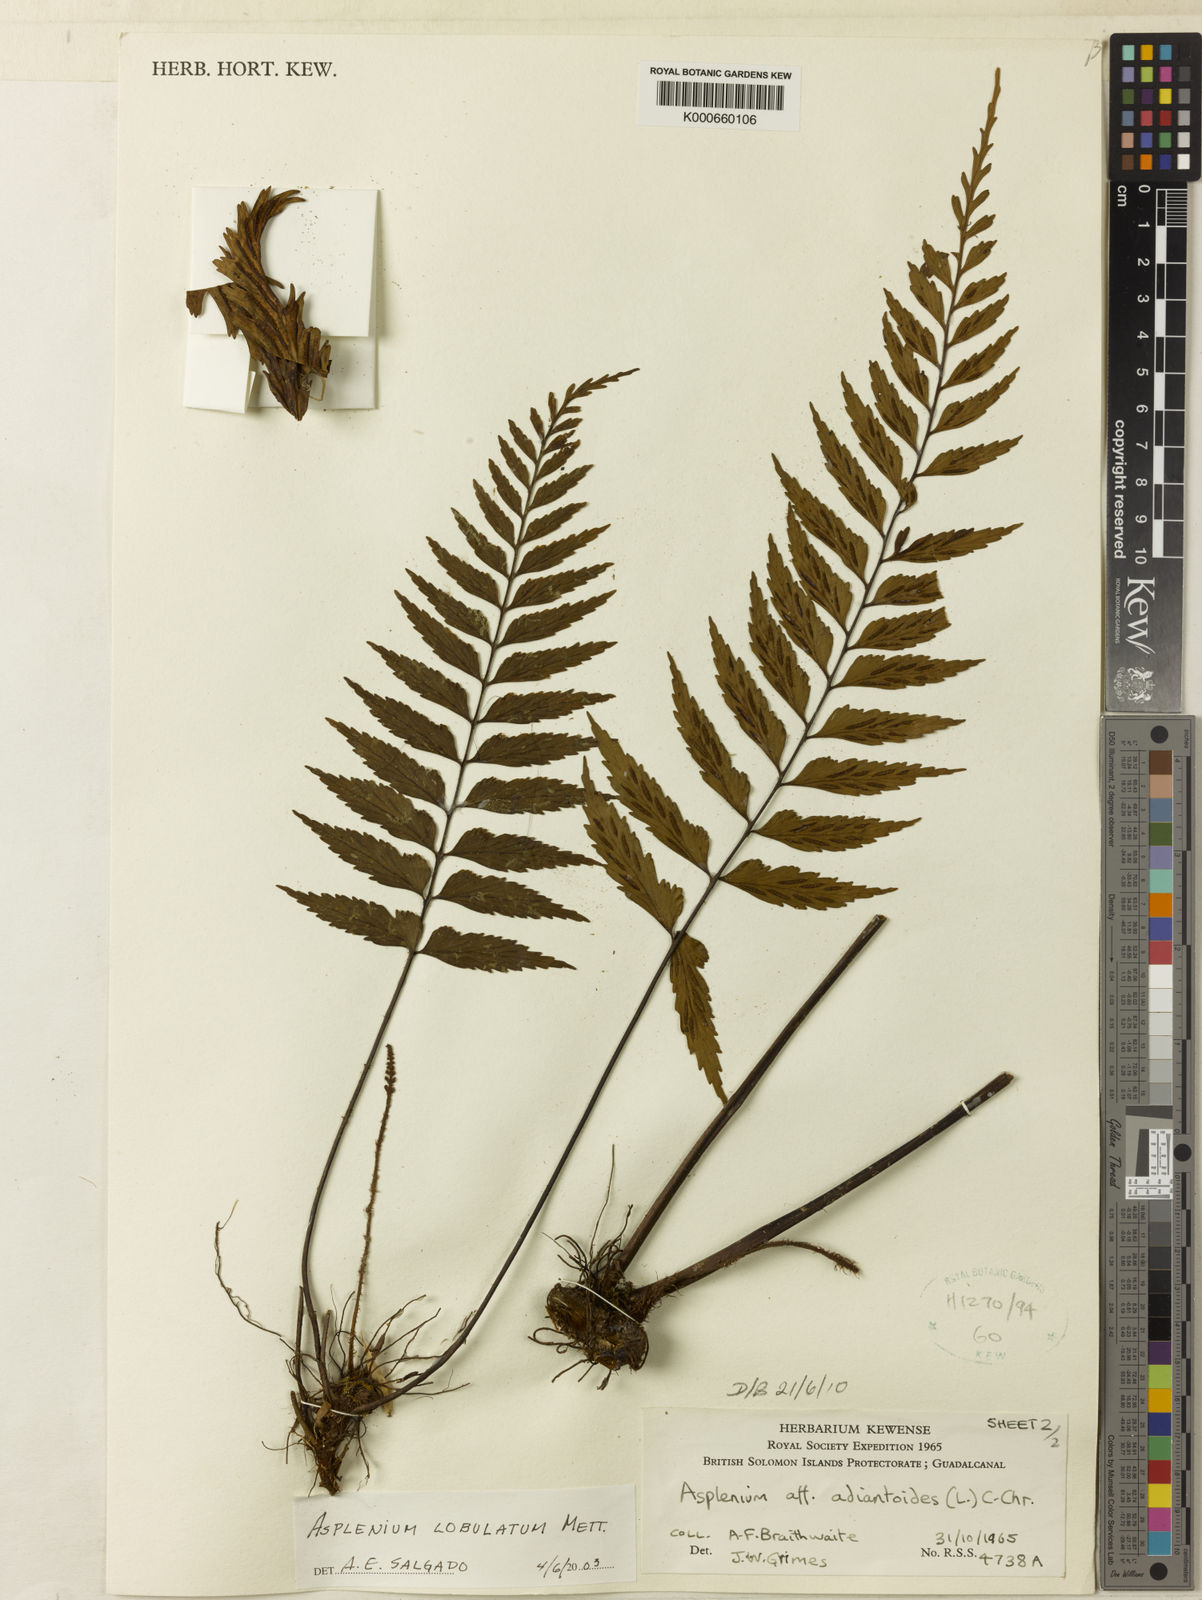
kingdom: Plantae
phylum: Tracheophyta
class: Polypodiopsida
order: Polypodiales
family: Aspleniaceae
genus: Asplenium
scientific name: Asplenium lobulatum
